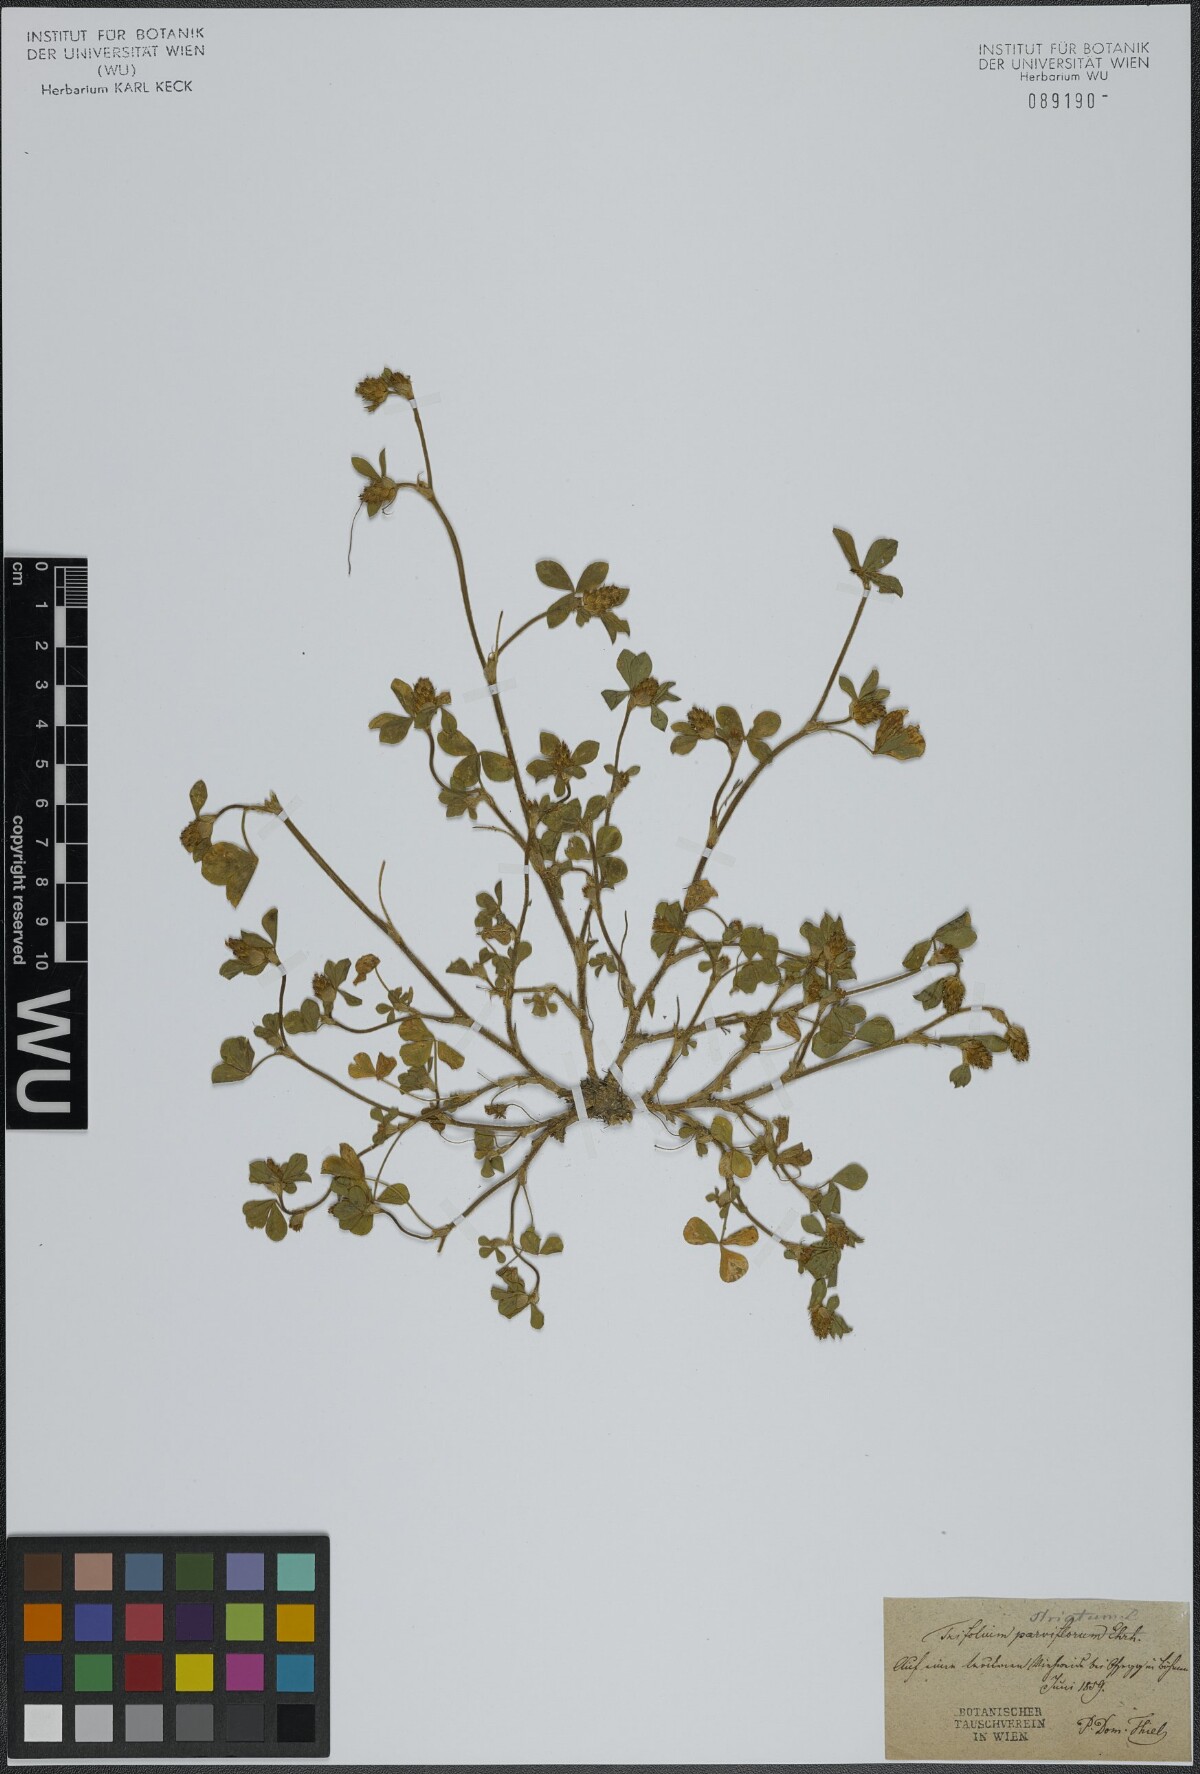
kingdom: Plantae
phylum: Tracheophyta
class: Magnoliopsida
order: Fabales
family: Fabaceae
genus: Trifolium
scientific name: Trifolium striatum
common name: Knotted clover
